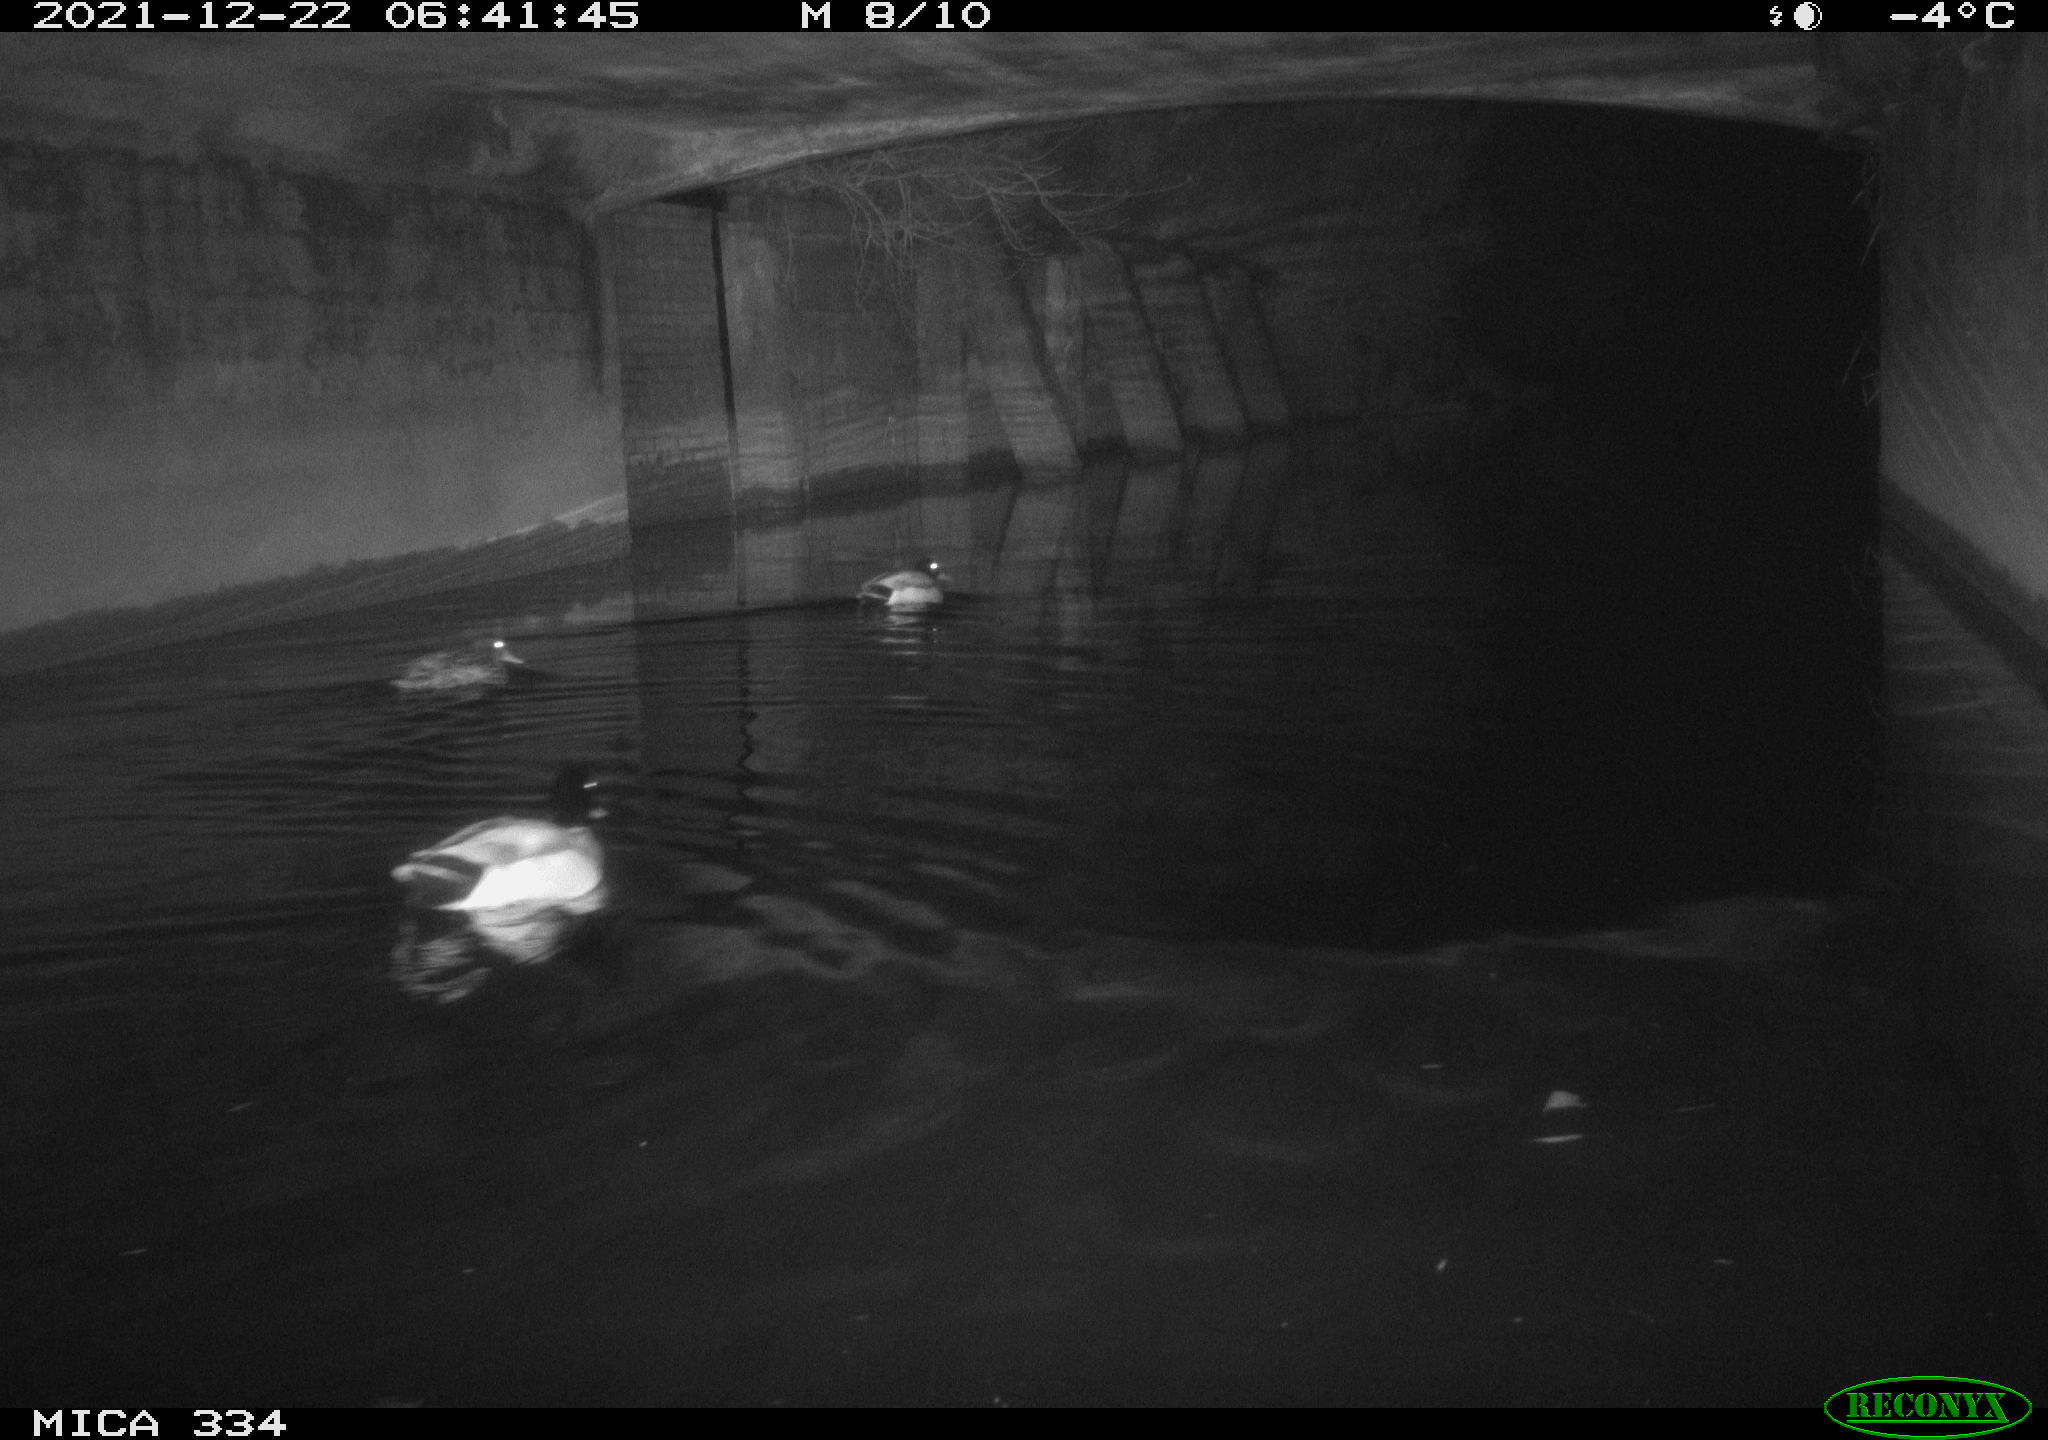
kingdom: Animalia
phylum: Chordata
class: Aves
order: Anseriformes
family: Anatidae
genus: Anas
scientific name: Anas platyrhynchos
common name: Mallard
